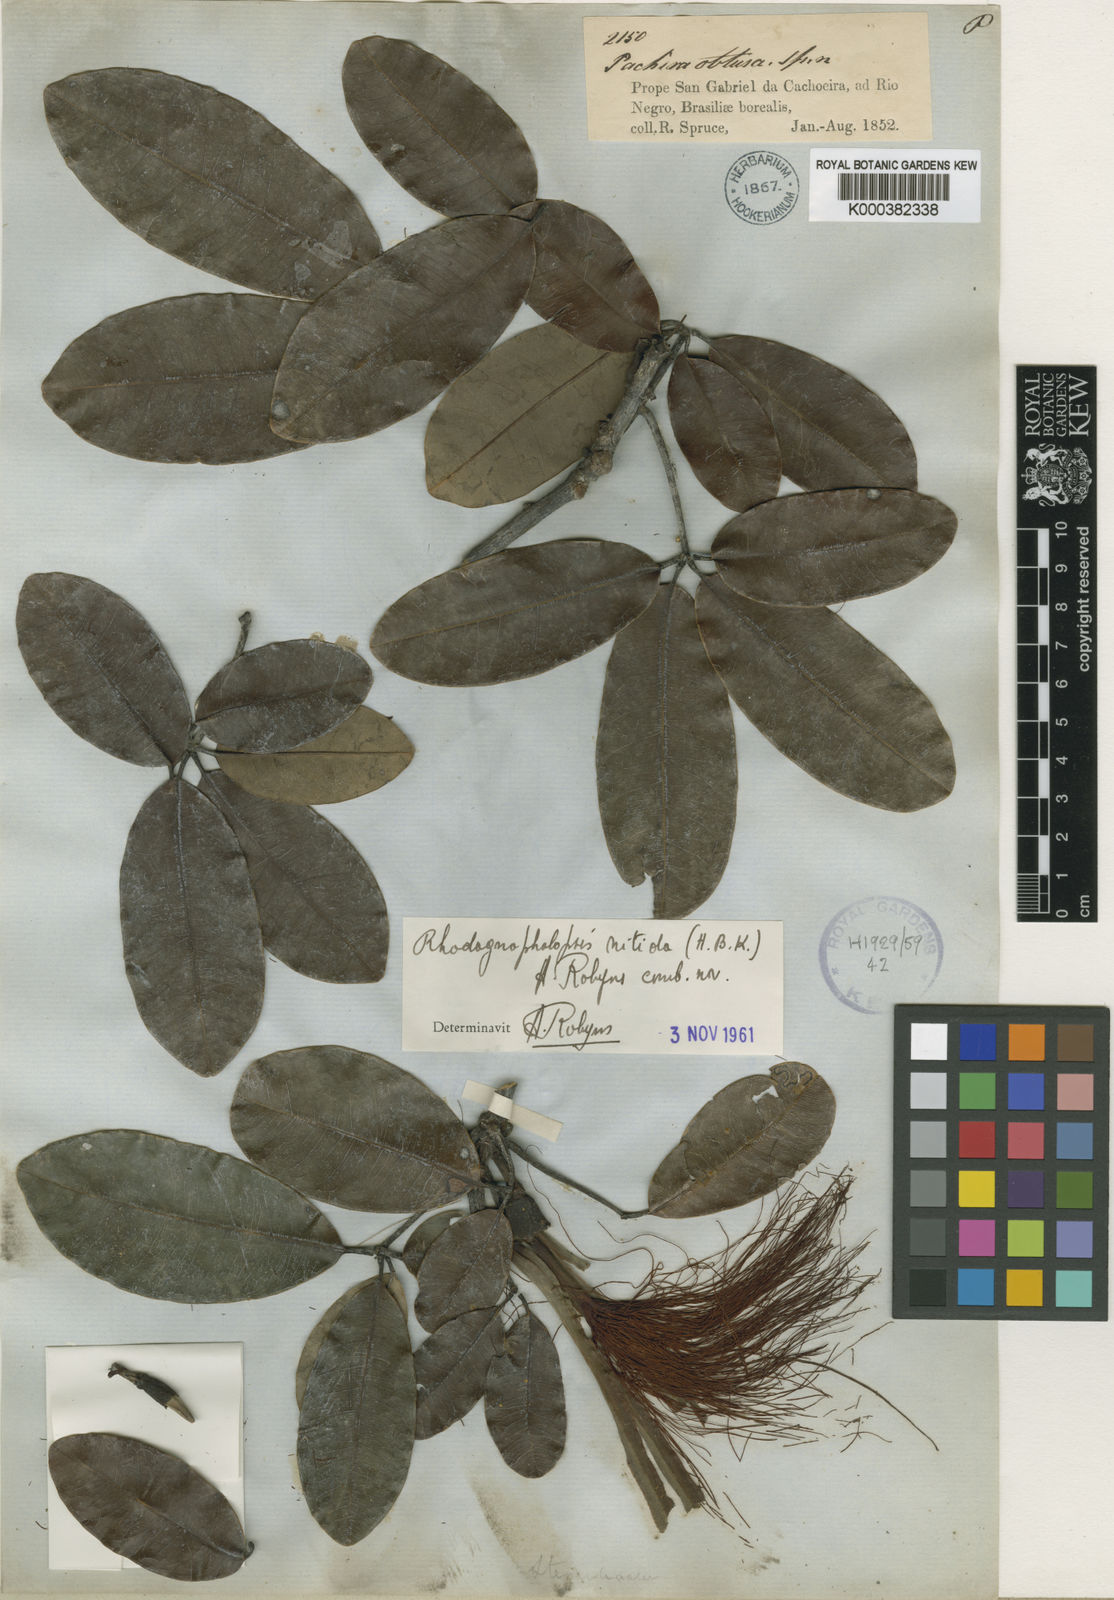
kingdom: Plantae
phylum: Tracheophyta
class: Magnoliopsida
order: Malvales
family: Malvaceae
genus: Pachira
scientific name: Pachira nitida
